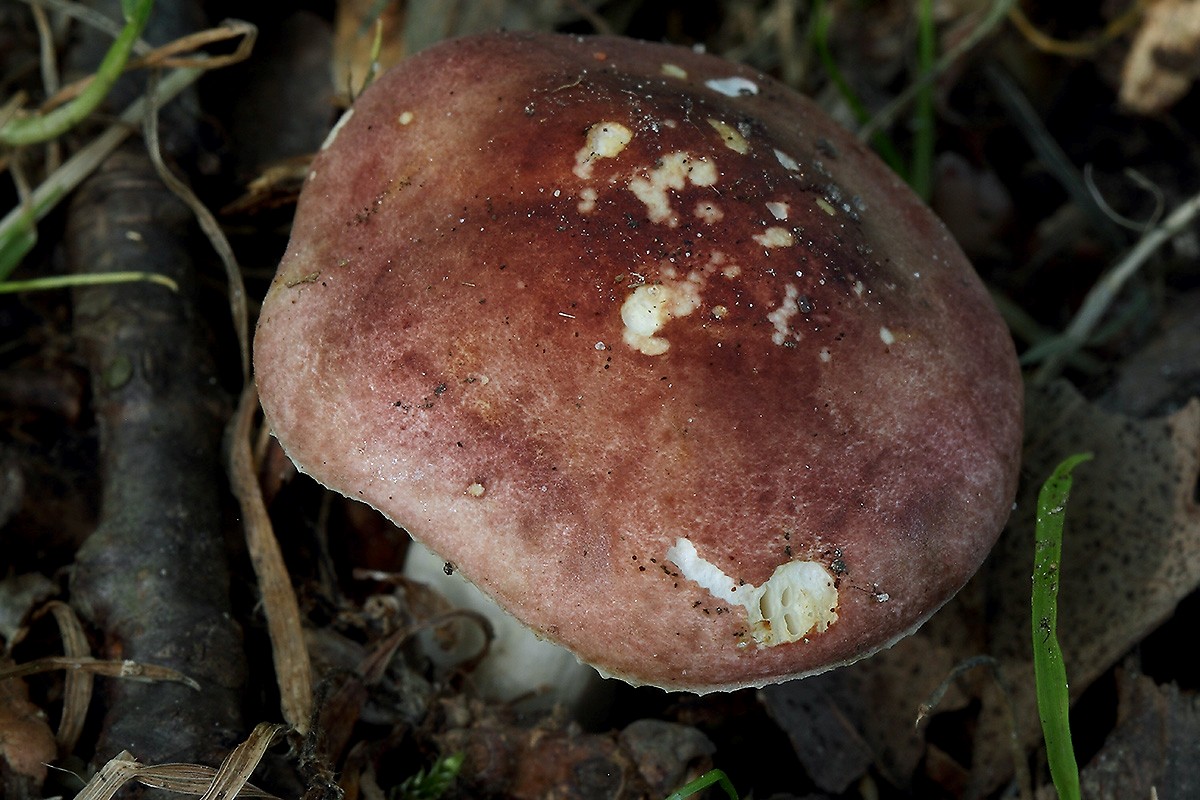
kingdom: Fungi
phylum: Basidiomycota
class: Agaricomycetes
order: Russulales
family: Russulaceae
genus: Russula
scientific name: Russula puellaris
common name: gulstokket skørhat
